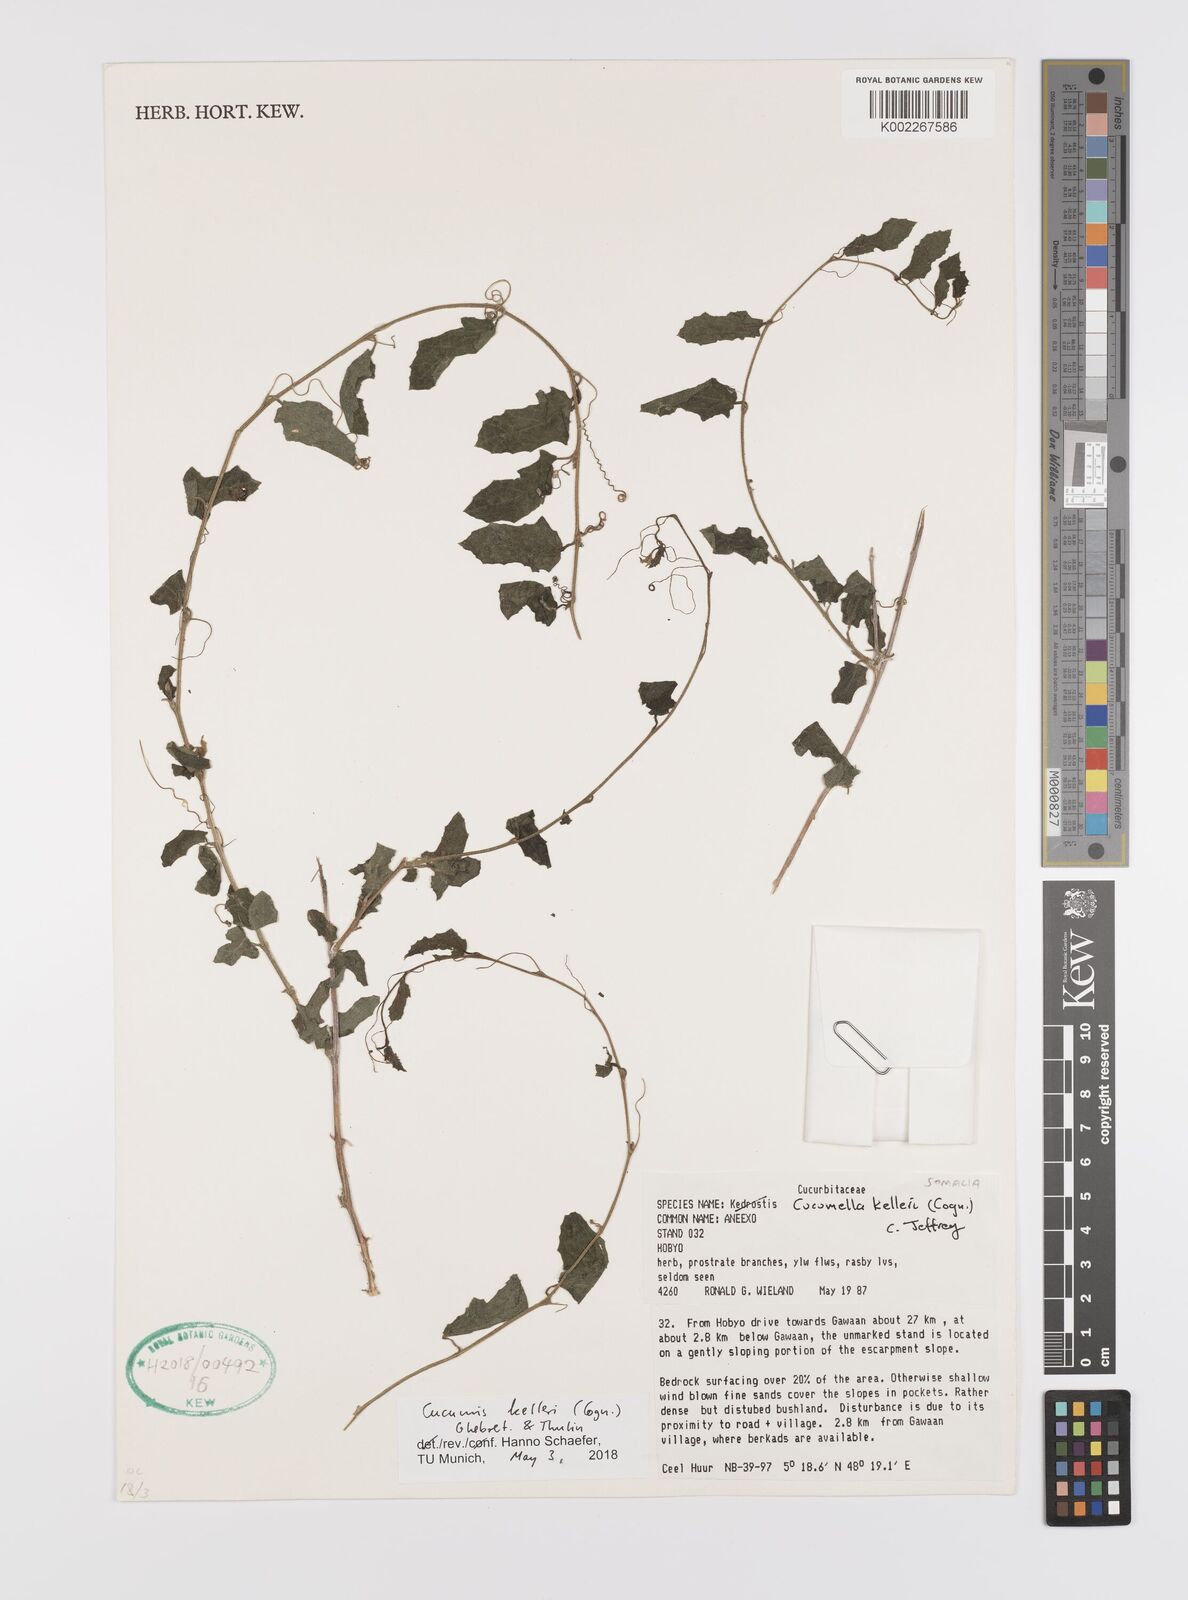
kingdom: Plantae
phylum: Tracheophyta
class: Magnoliopsida
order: Cucurbitales
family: Cucurbitaceae
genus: Cucumis
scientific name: Cucumis kelleri
